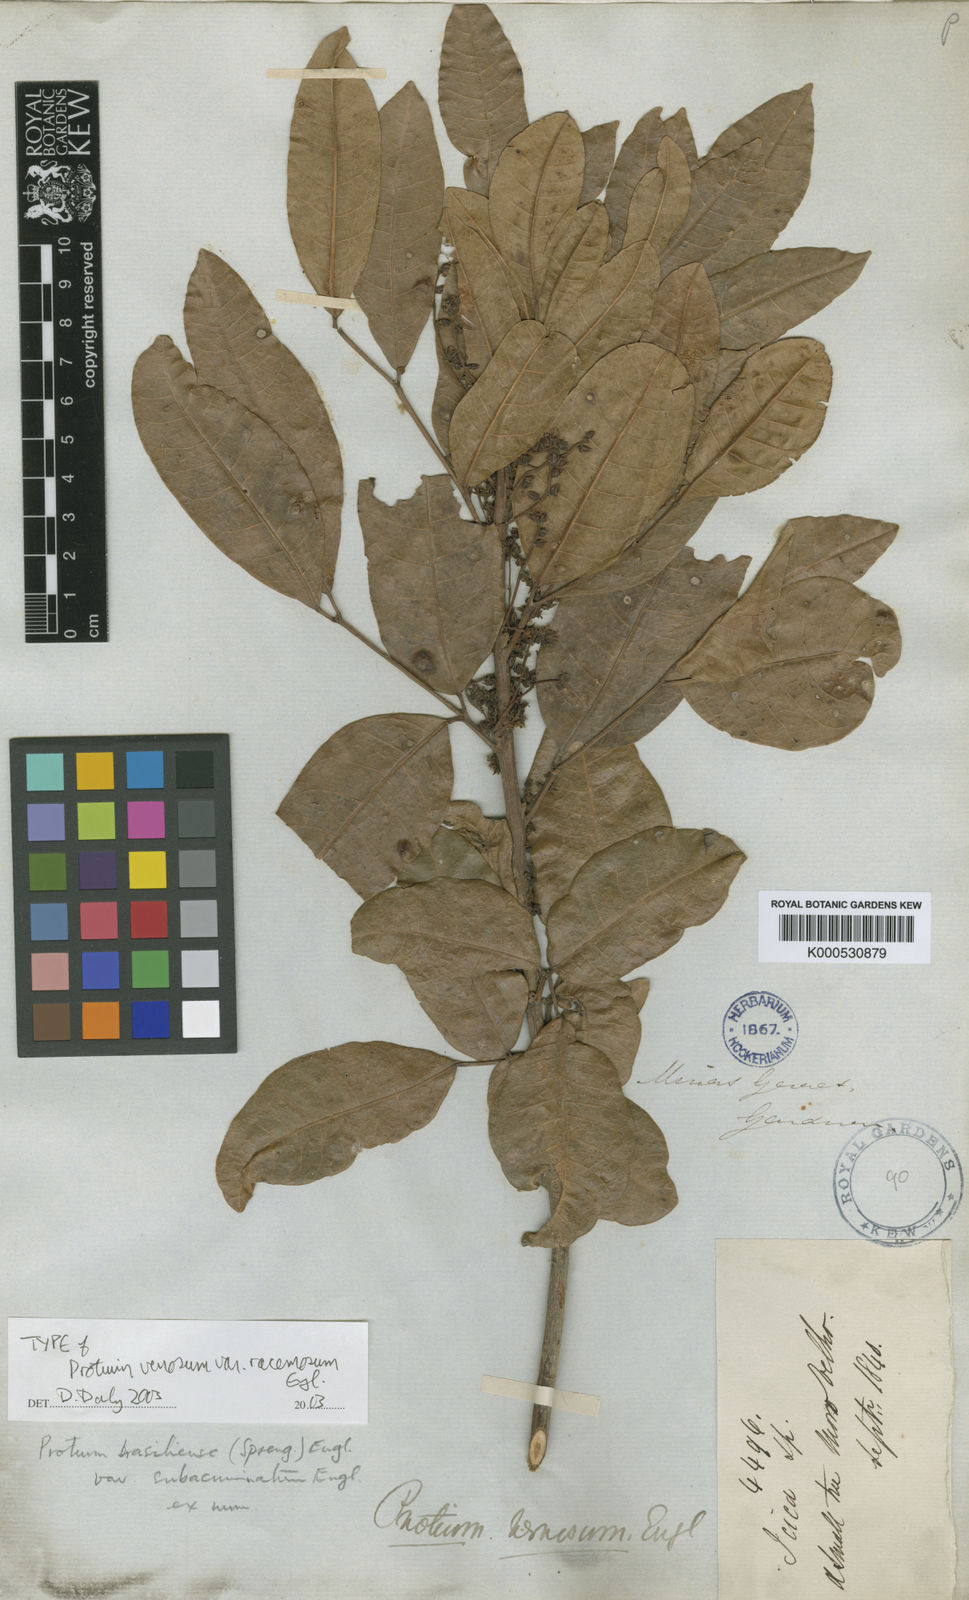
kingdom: Plantae
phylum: Tracheophyta
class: Magnoliopsida
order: Sapindales
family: Burseraceae
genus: Protium
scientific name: Protium brasiliense
